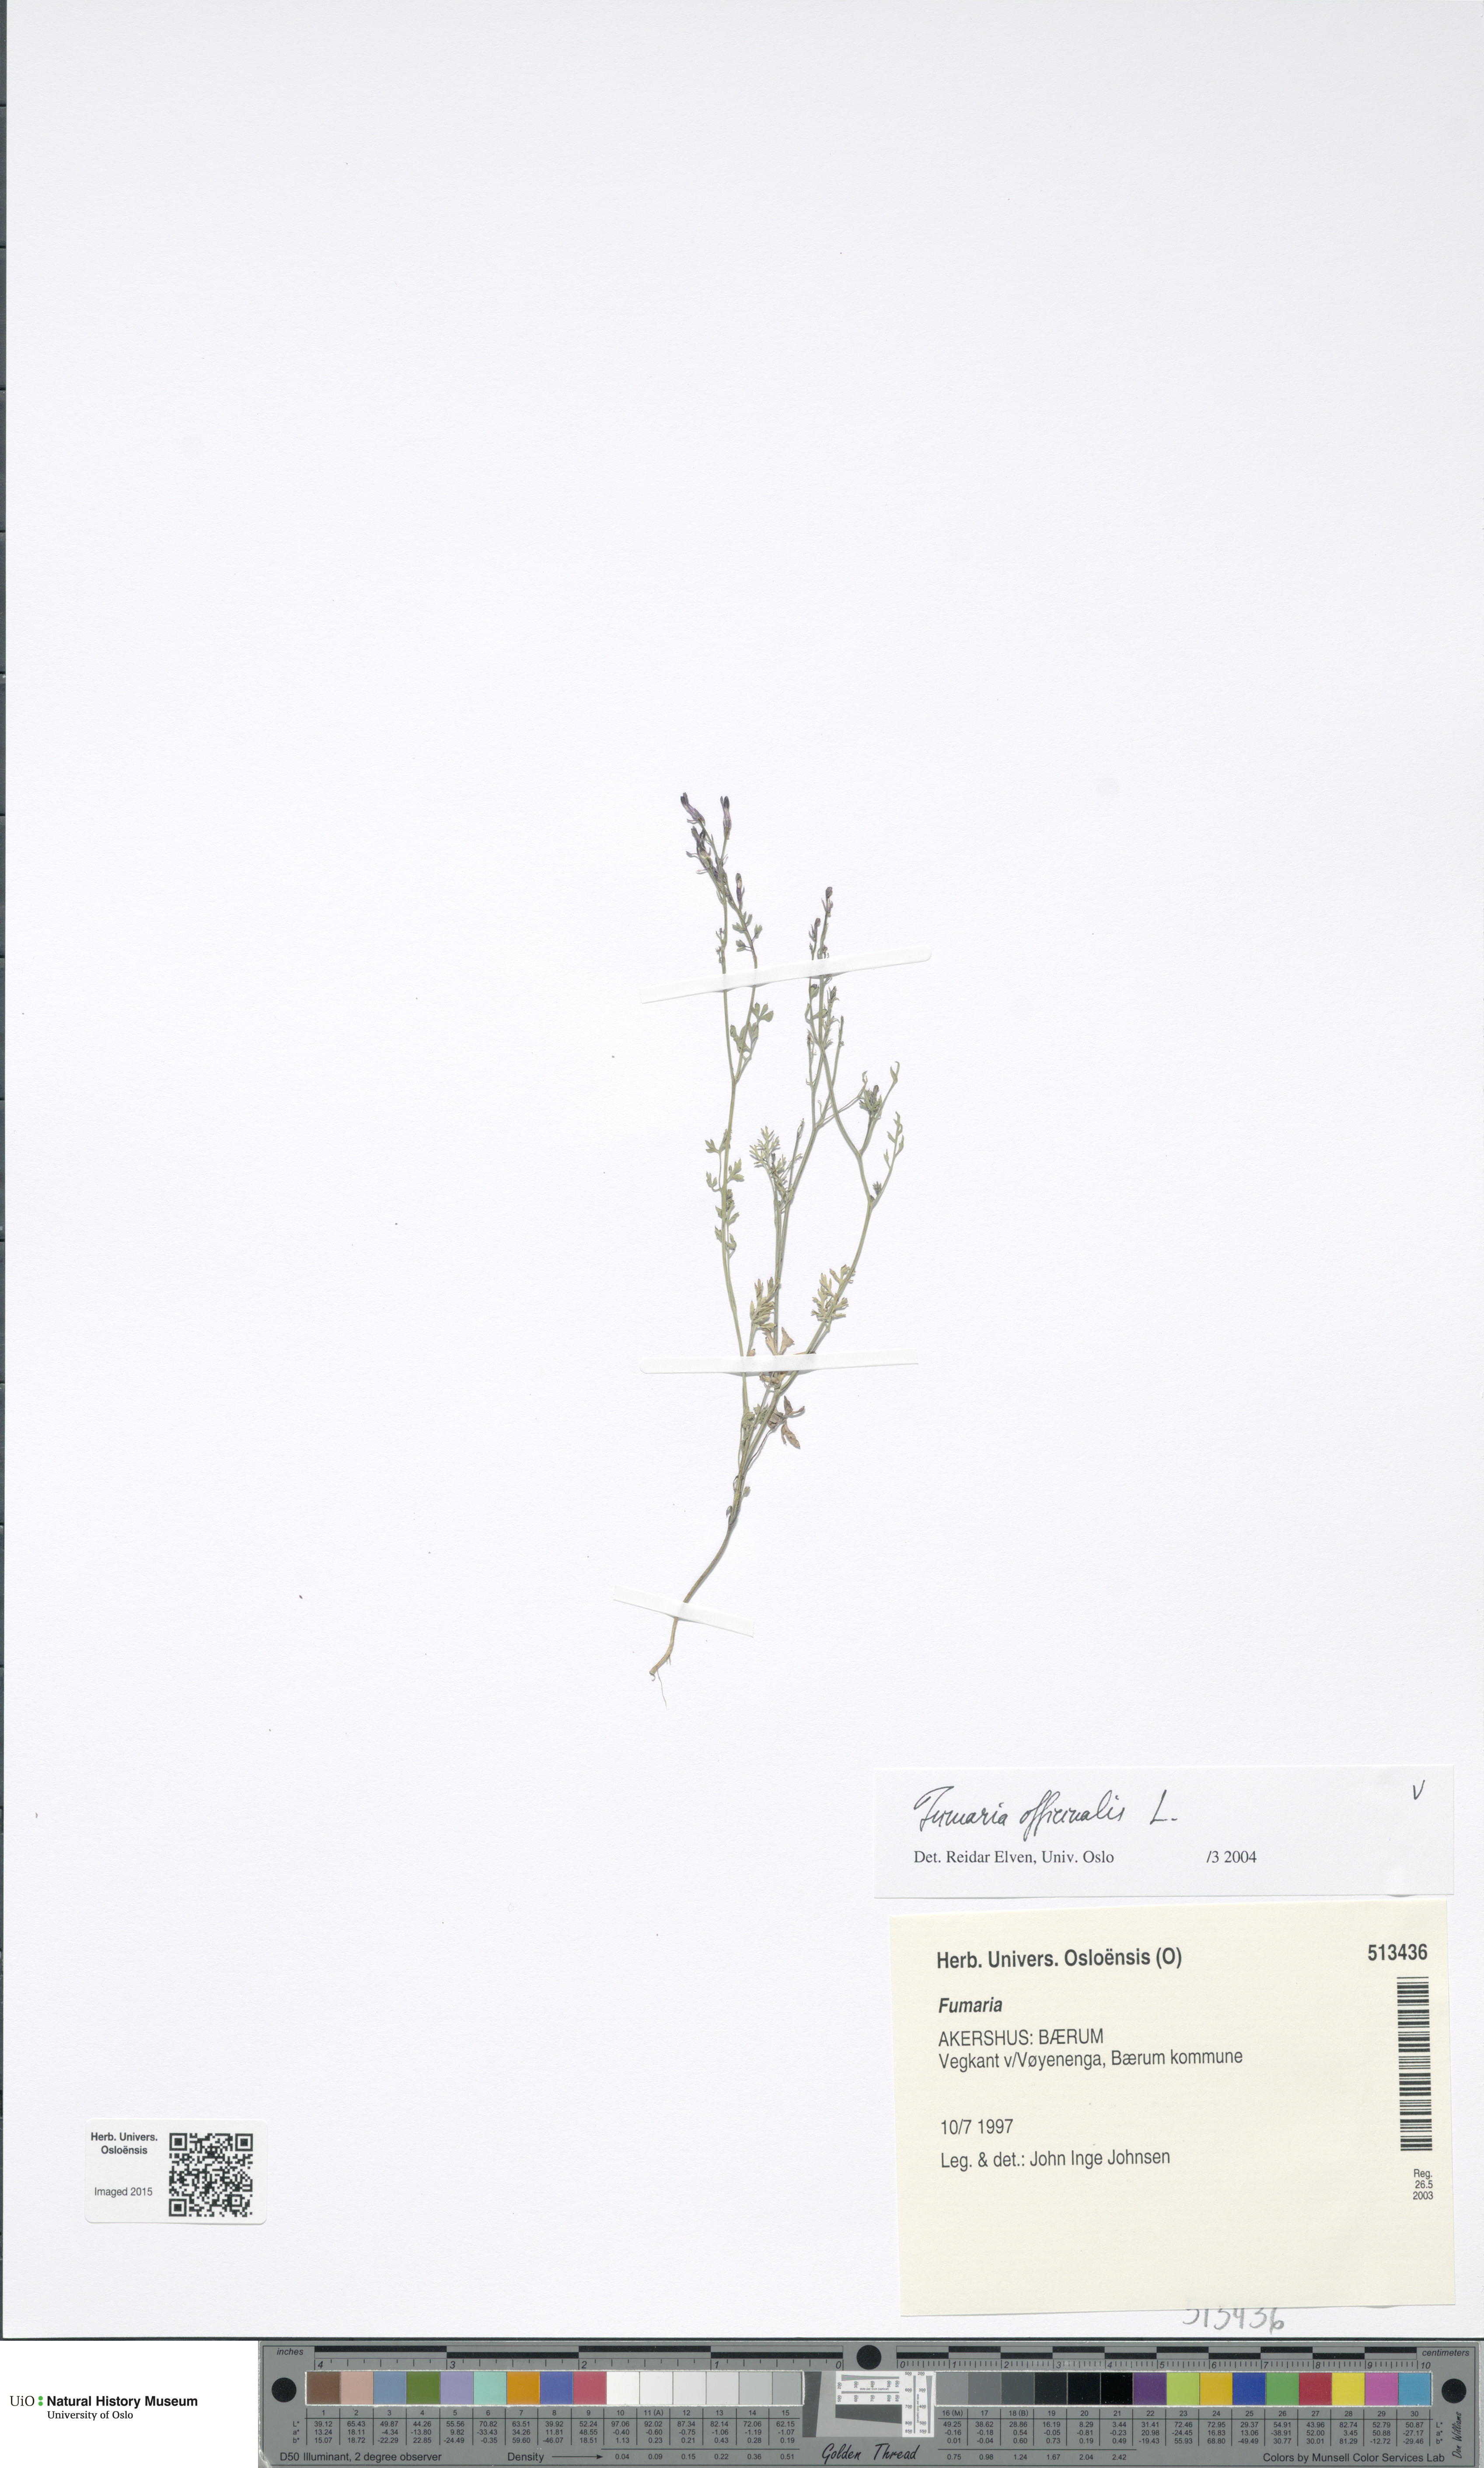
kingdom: Plantae
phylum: Tracheophyta
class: Magnoliopsida
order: Ranunculales
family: Papaveraceae
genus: Fumaria
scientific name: Fumaria officinalis
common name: Common fumitory
